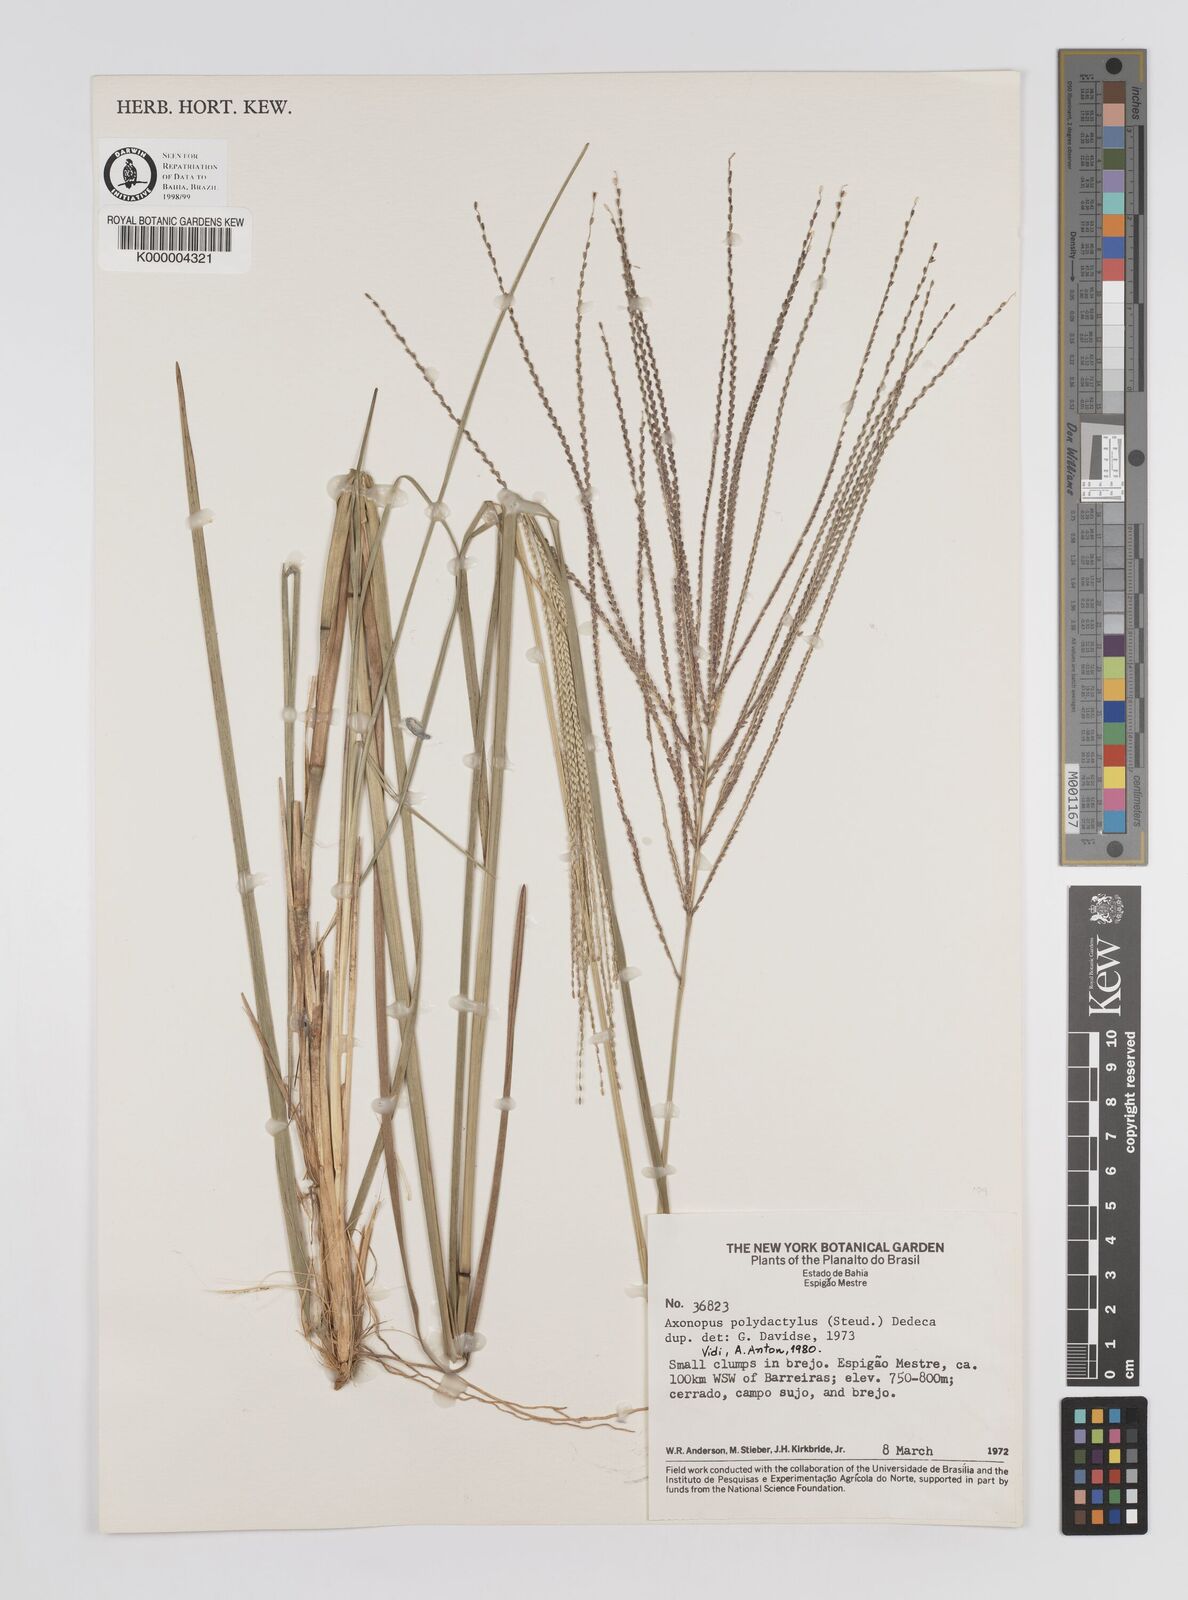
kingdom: Plantae
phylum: Tracheophyta
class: Liliopsida
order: Poales
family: Poaceae
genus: Axonopus
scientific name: Axonopus polydactylus
